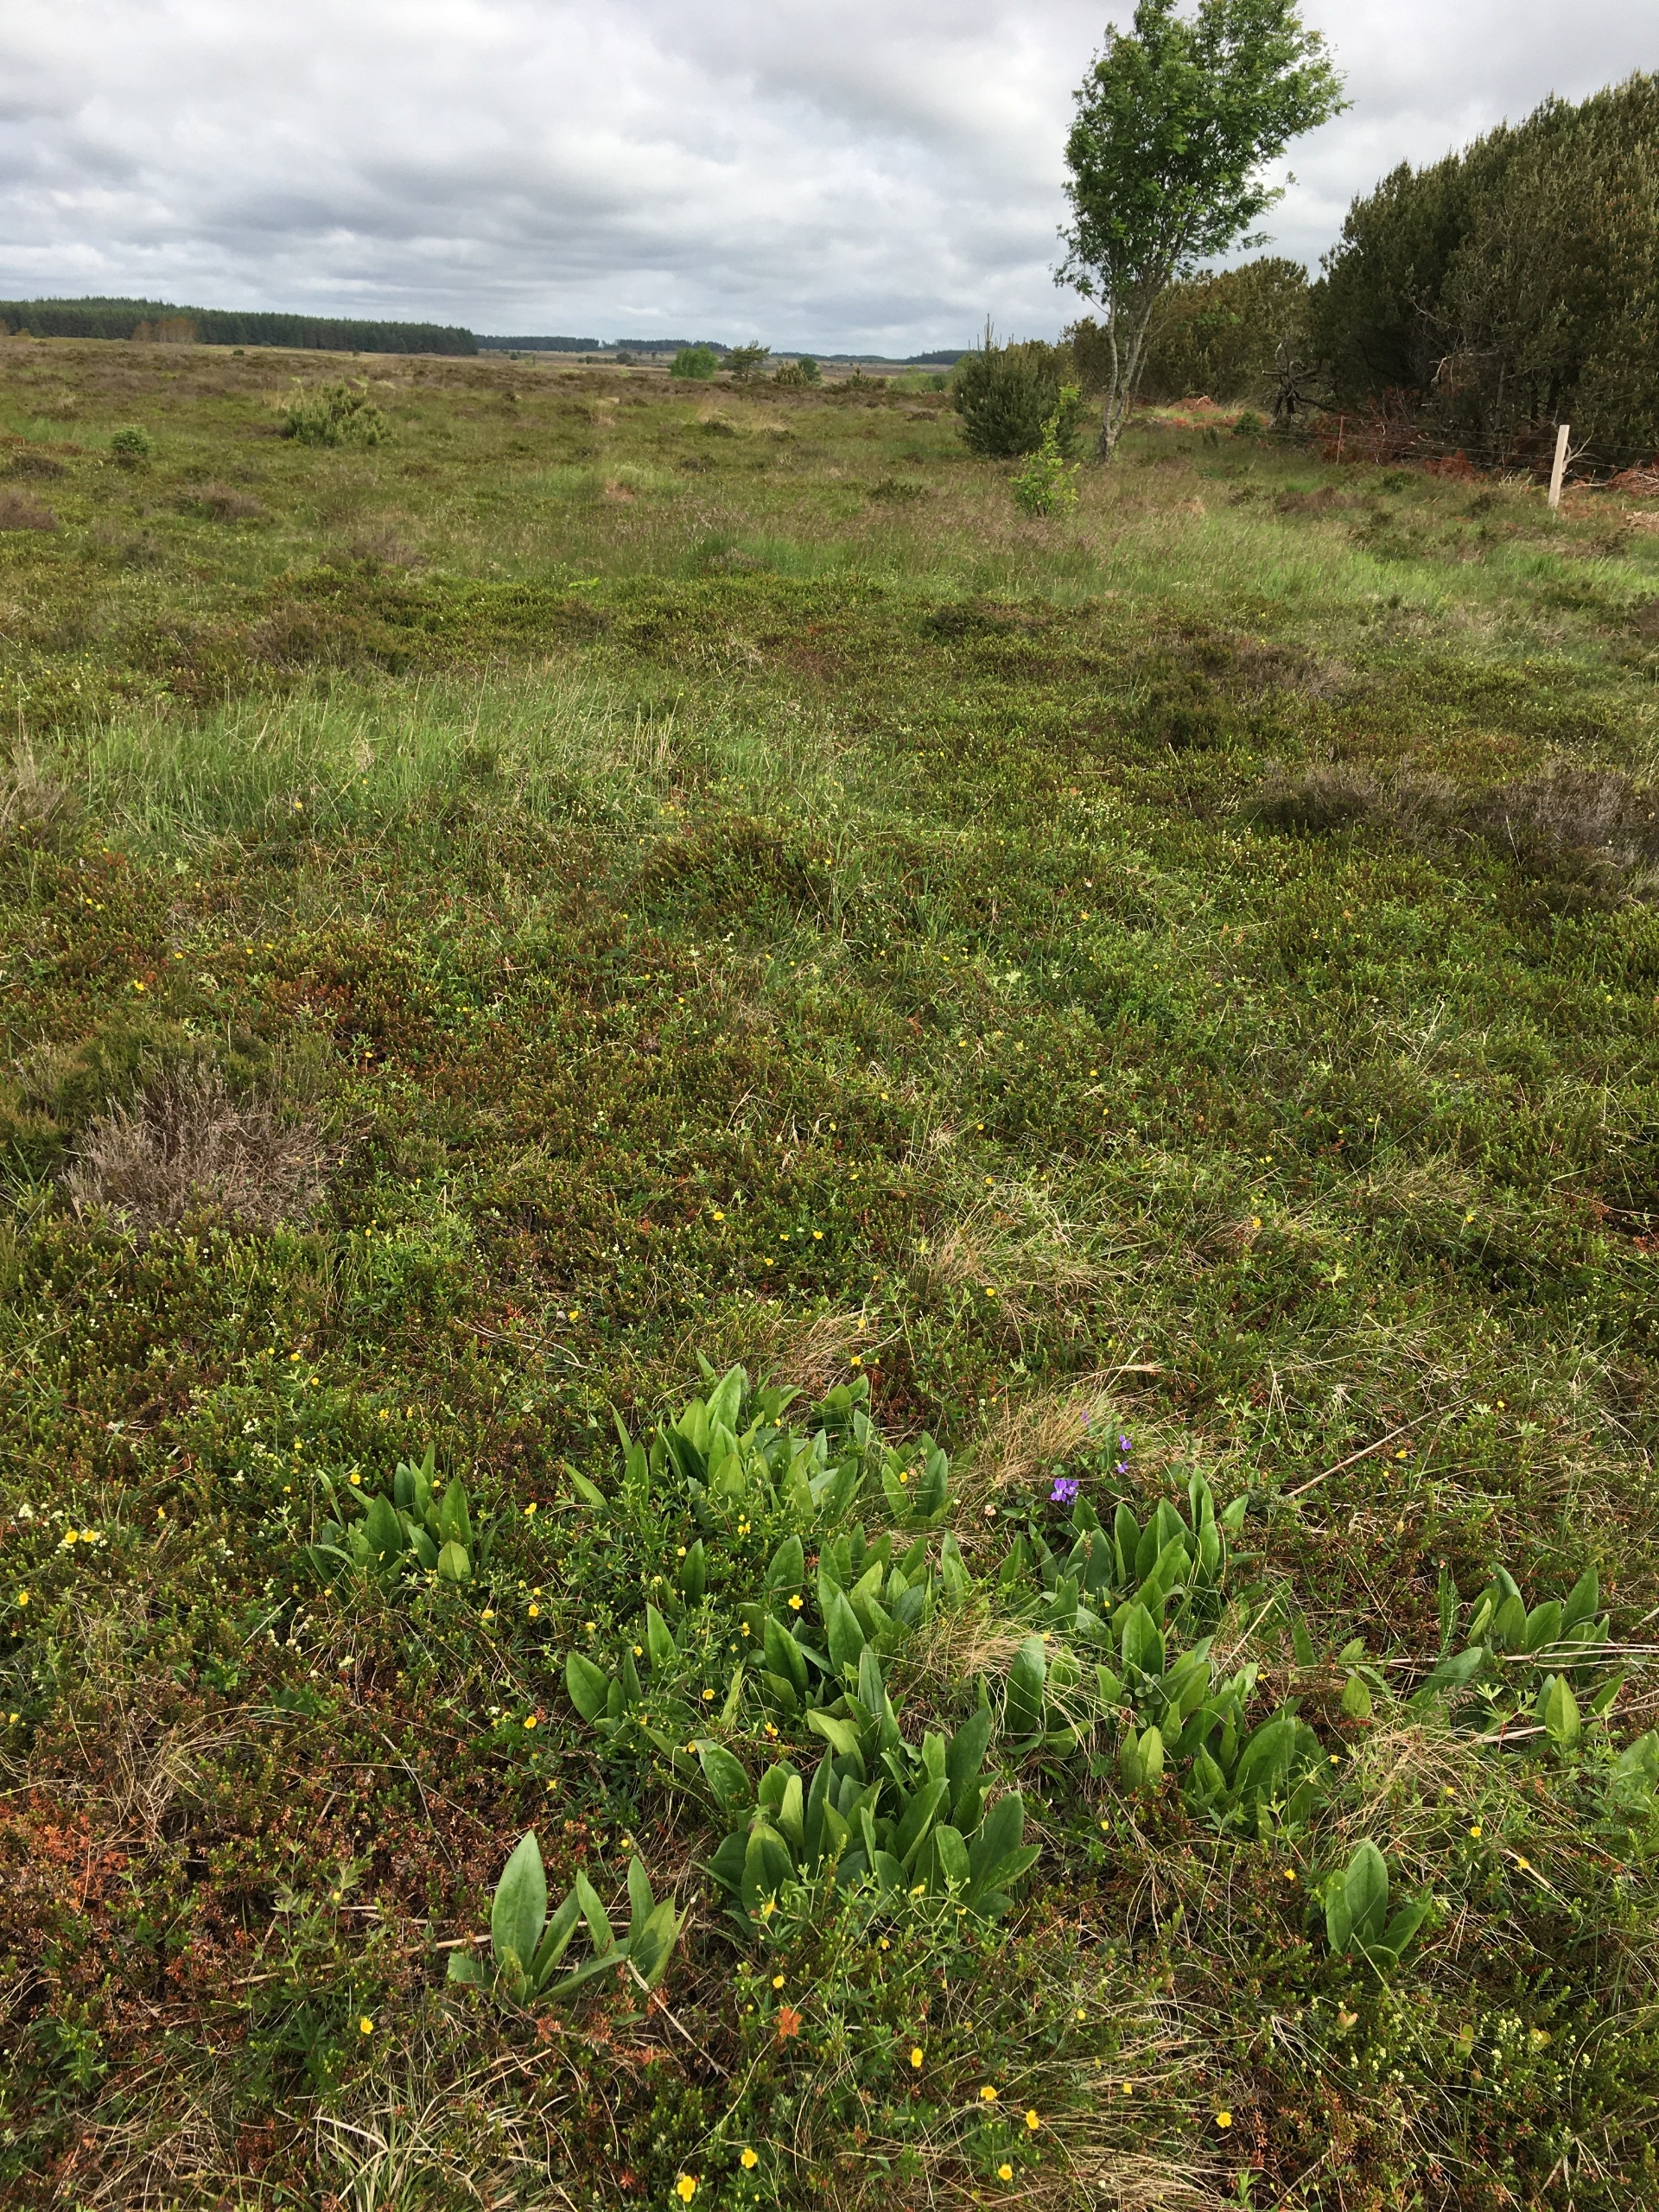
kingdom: Plantae
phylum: Tracheophyta
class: Magnoliopsida
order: Asterales
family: Asteraceae
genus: Arnica
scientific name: Arnica montana
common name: Guldblomme
